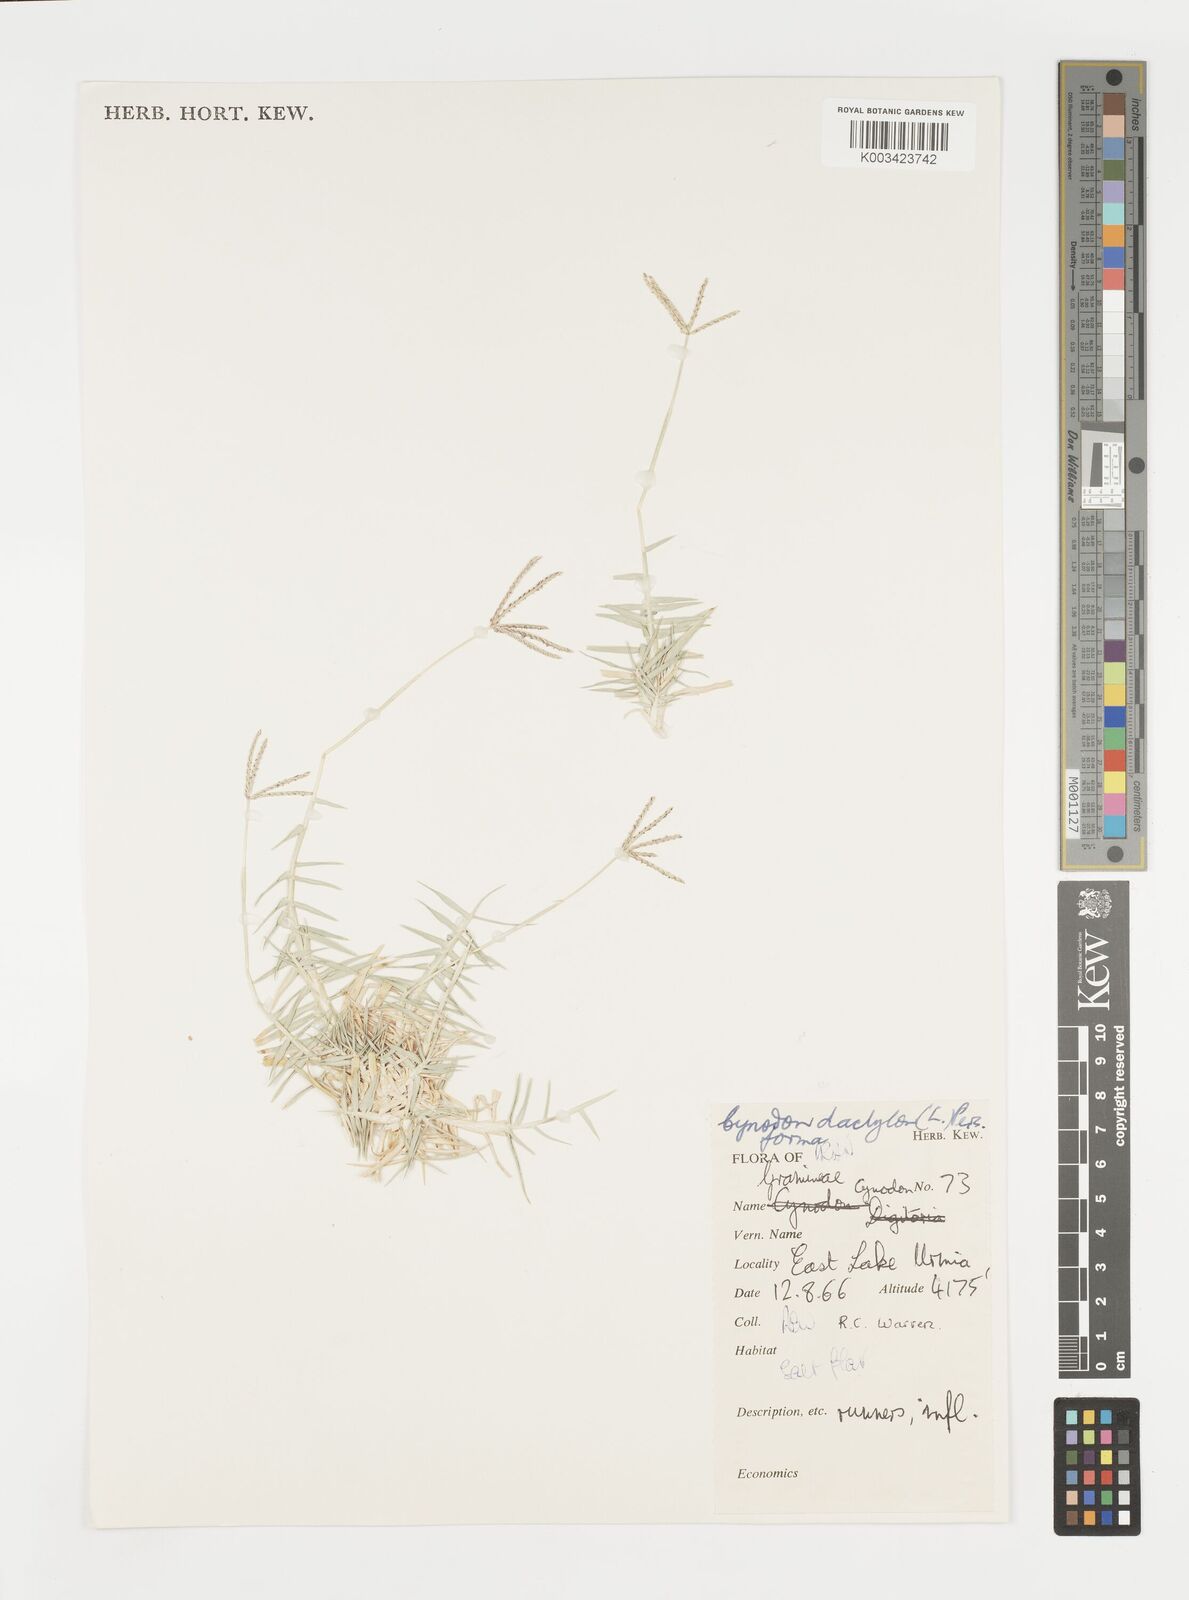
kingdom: Plantae
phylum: Tracheophyta
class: Liliopsida
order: Poales
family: Poaceae
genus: Cynodon
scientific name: Cynodon dactylon
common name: Bermuda grass
